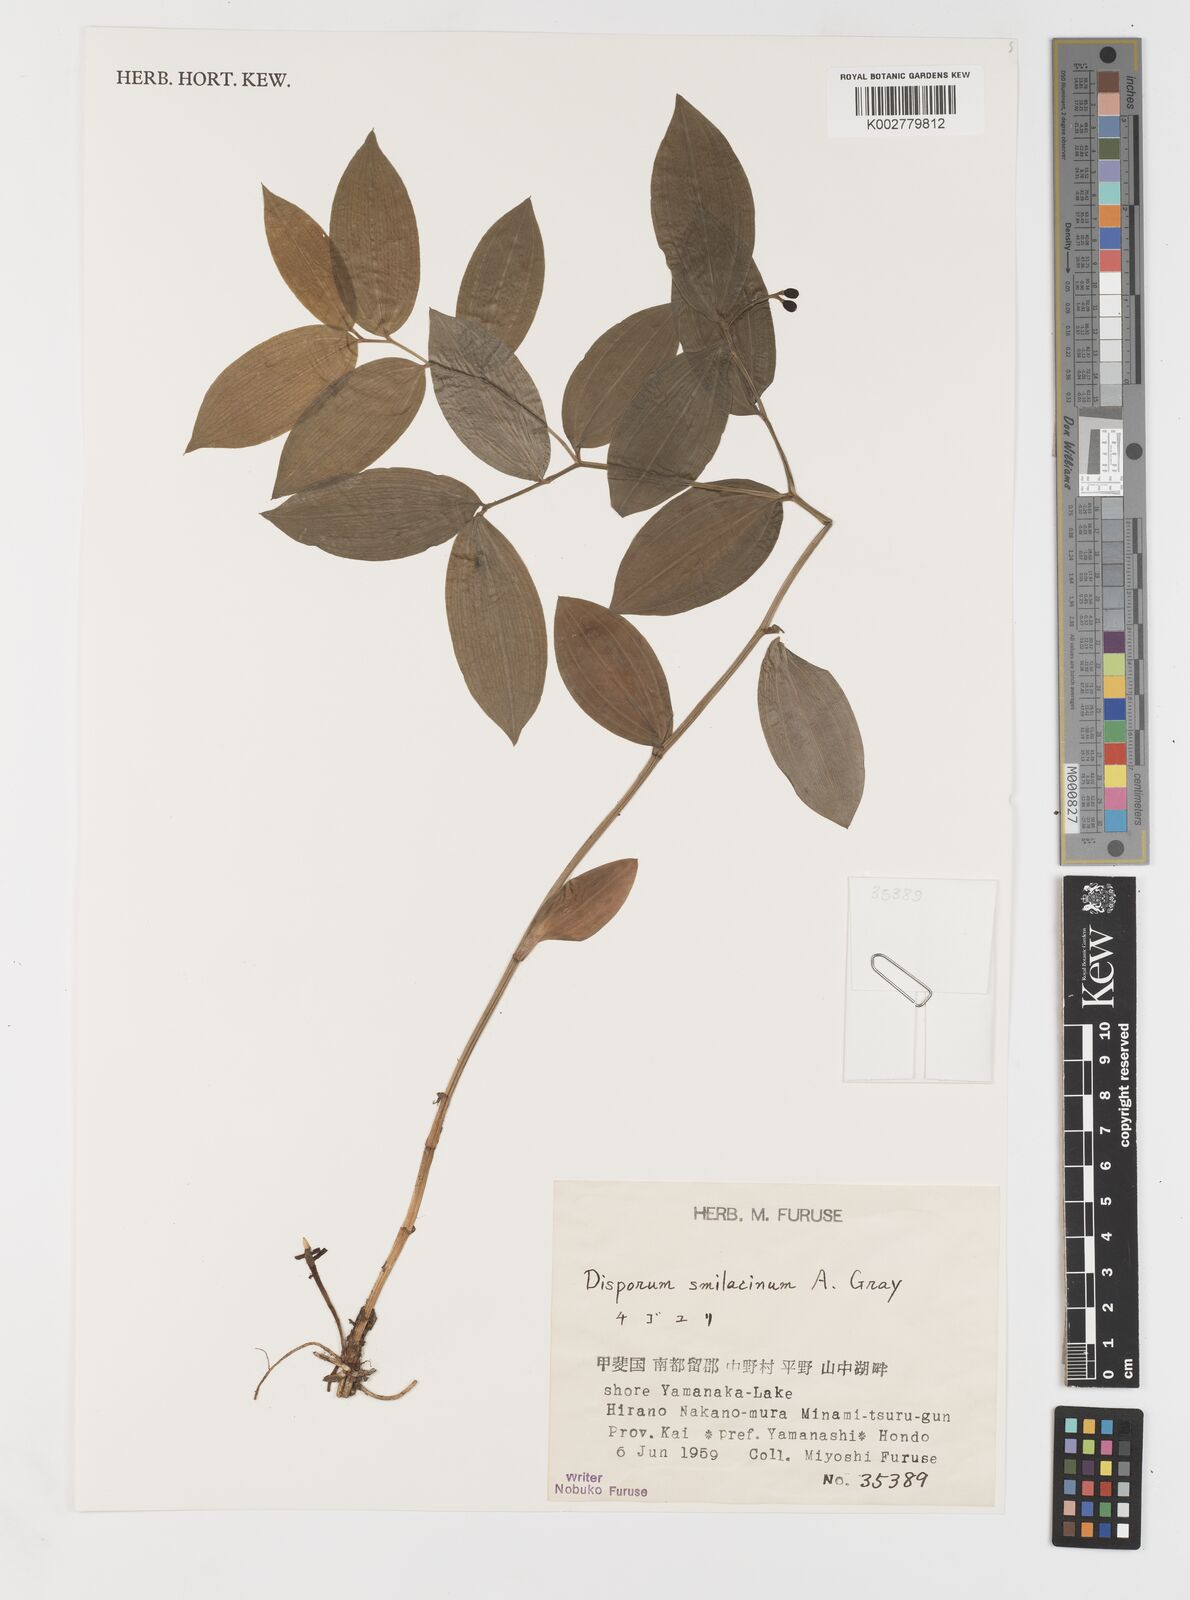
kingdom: Plantae
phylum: Tracheophyta
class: Liliopsida
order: Liliales
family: Colchicaceae
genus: Disporum
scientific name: Disporum smilacinum
